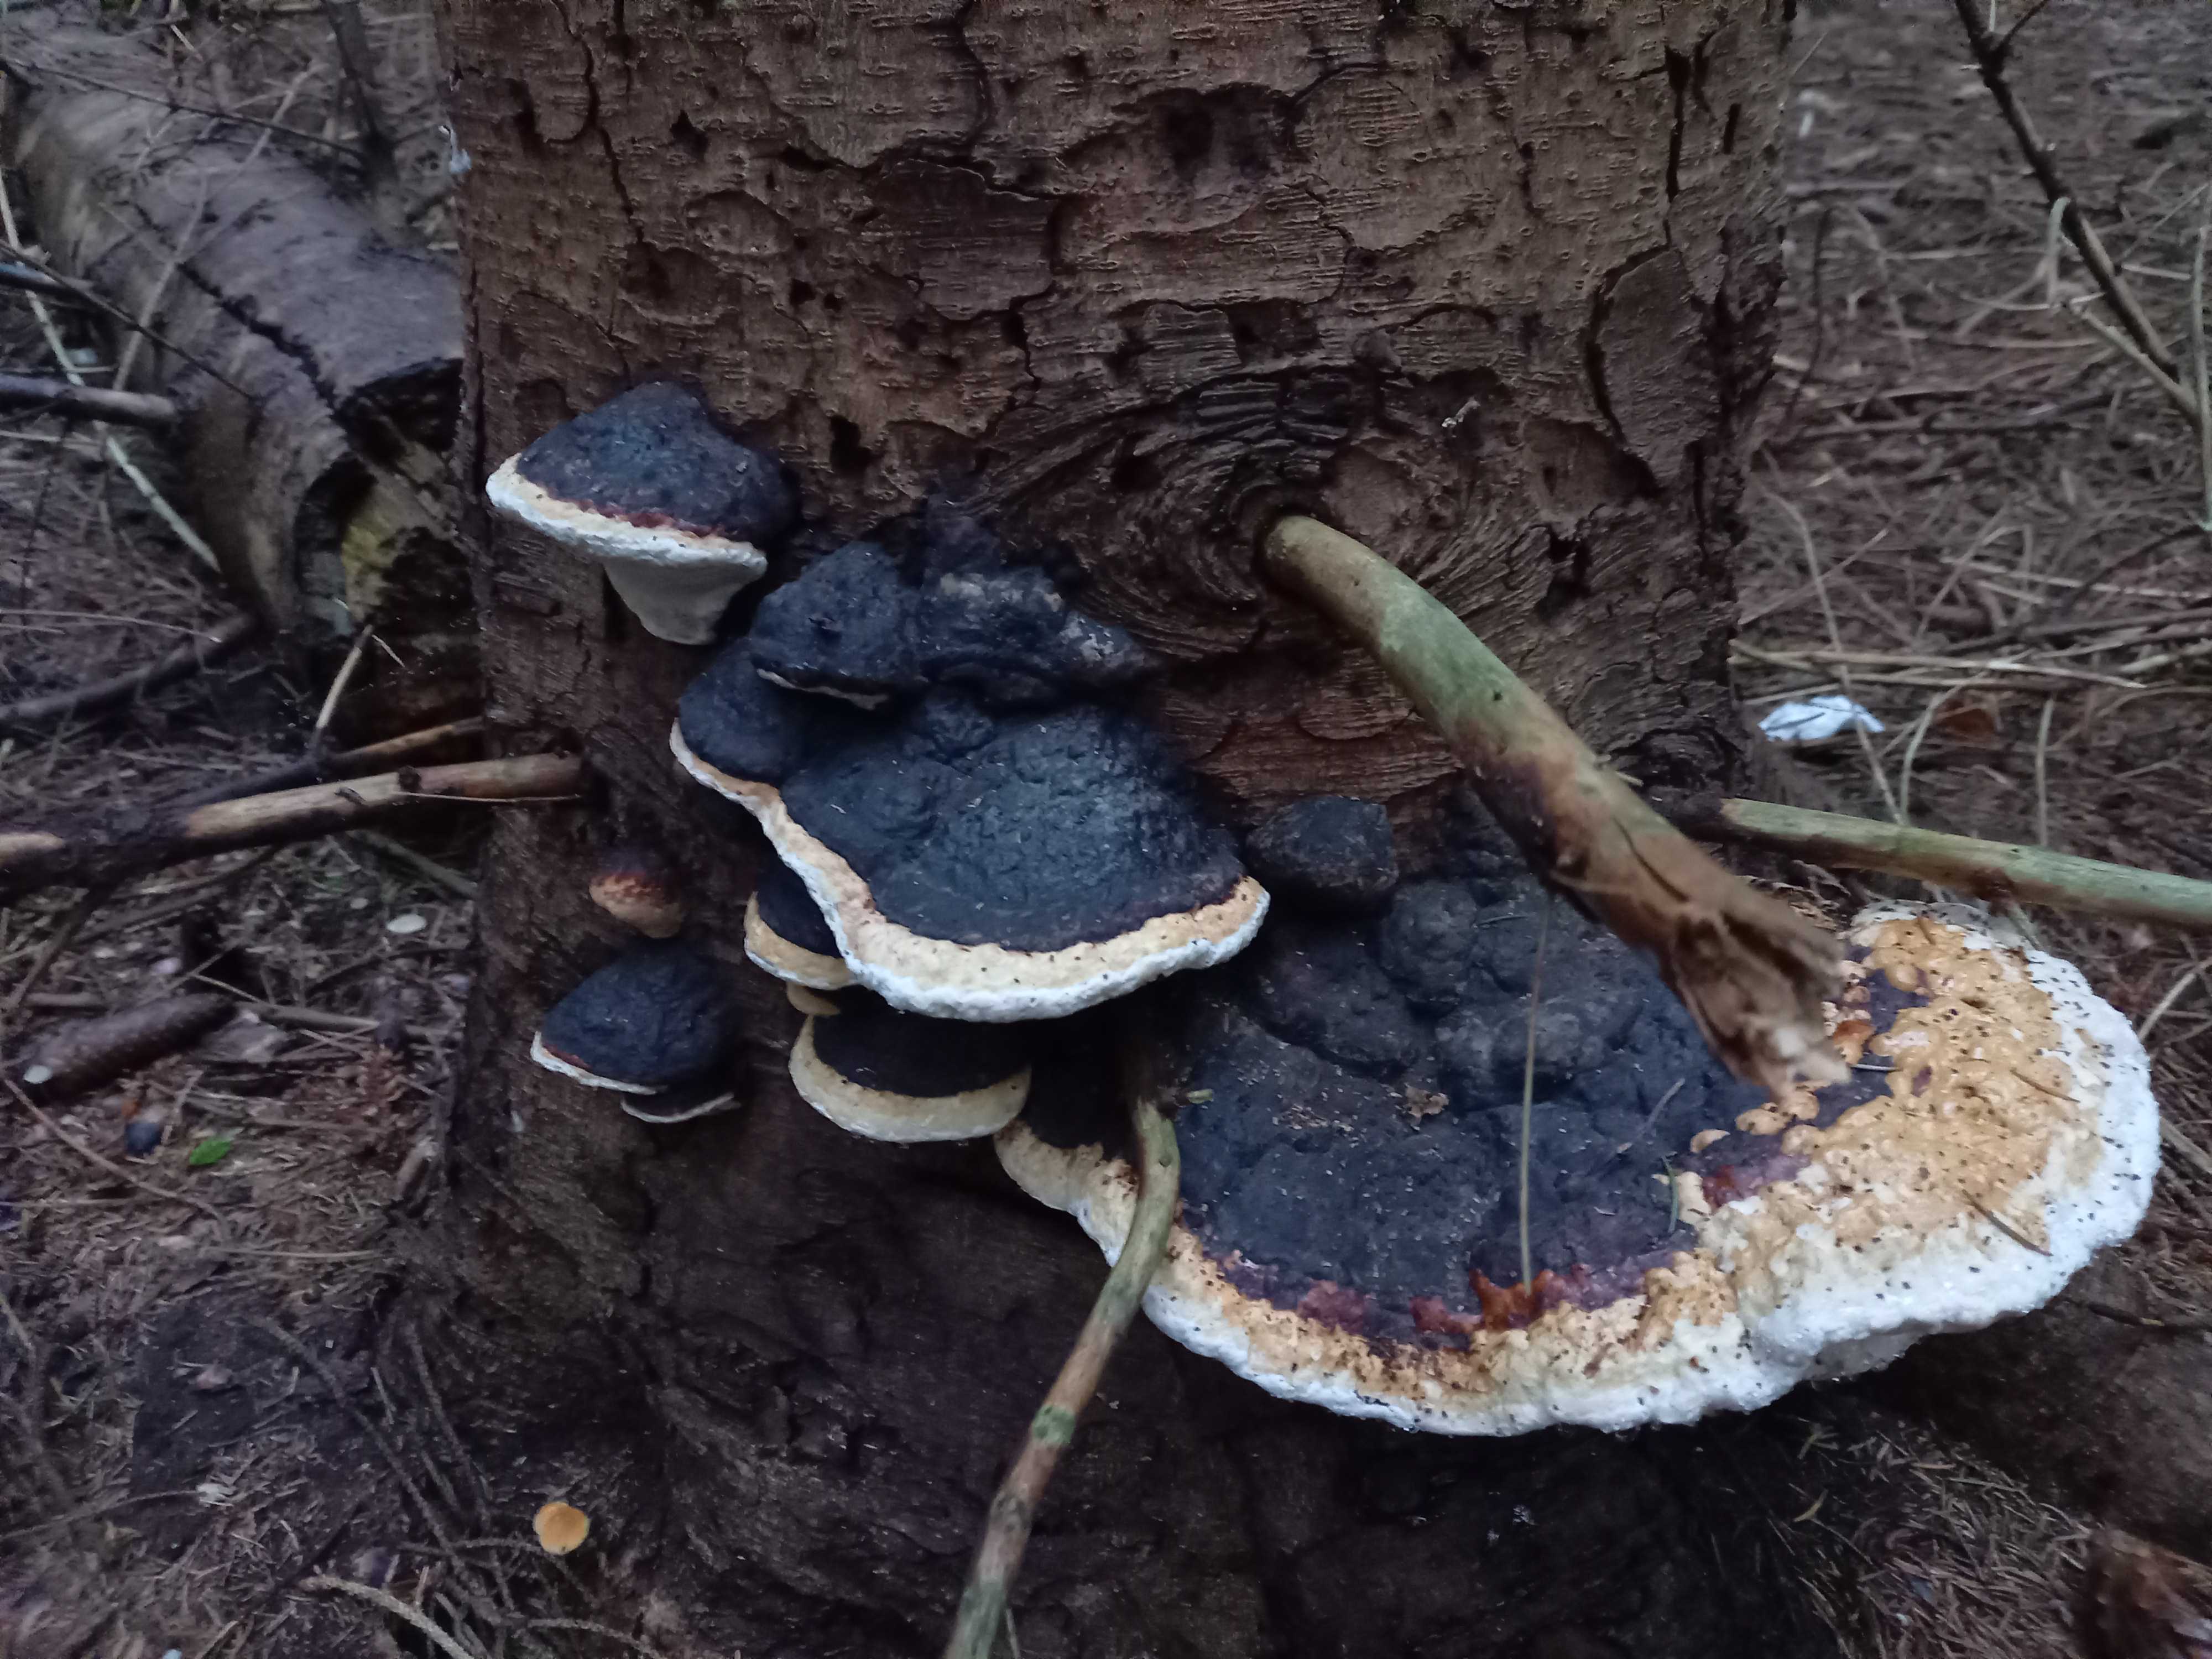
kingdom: Fungi
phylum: Basidiomycota
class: Agaricomycetes
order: Polyporales
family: Fomitopsidaceae
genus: Fomitopsis
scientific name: Fomitopsis pinicola
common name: randbæltet hovporesvamp
